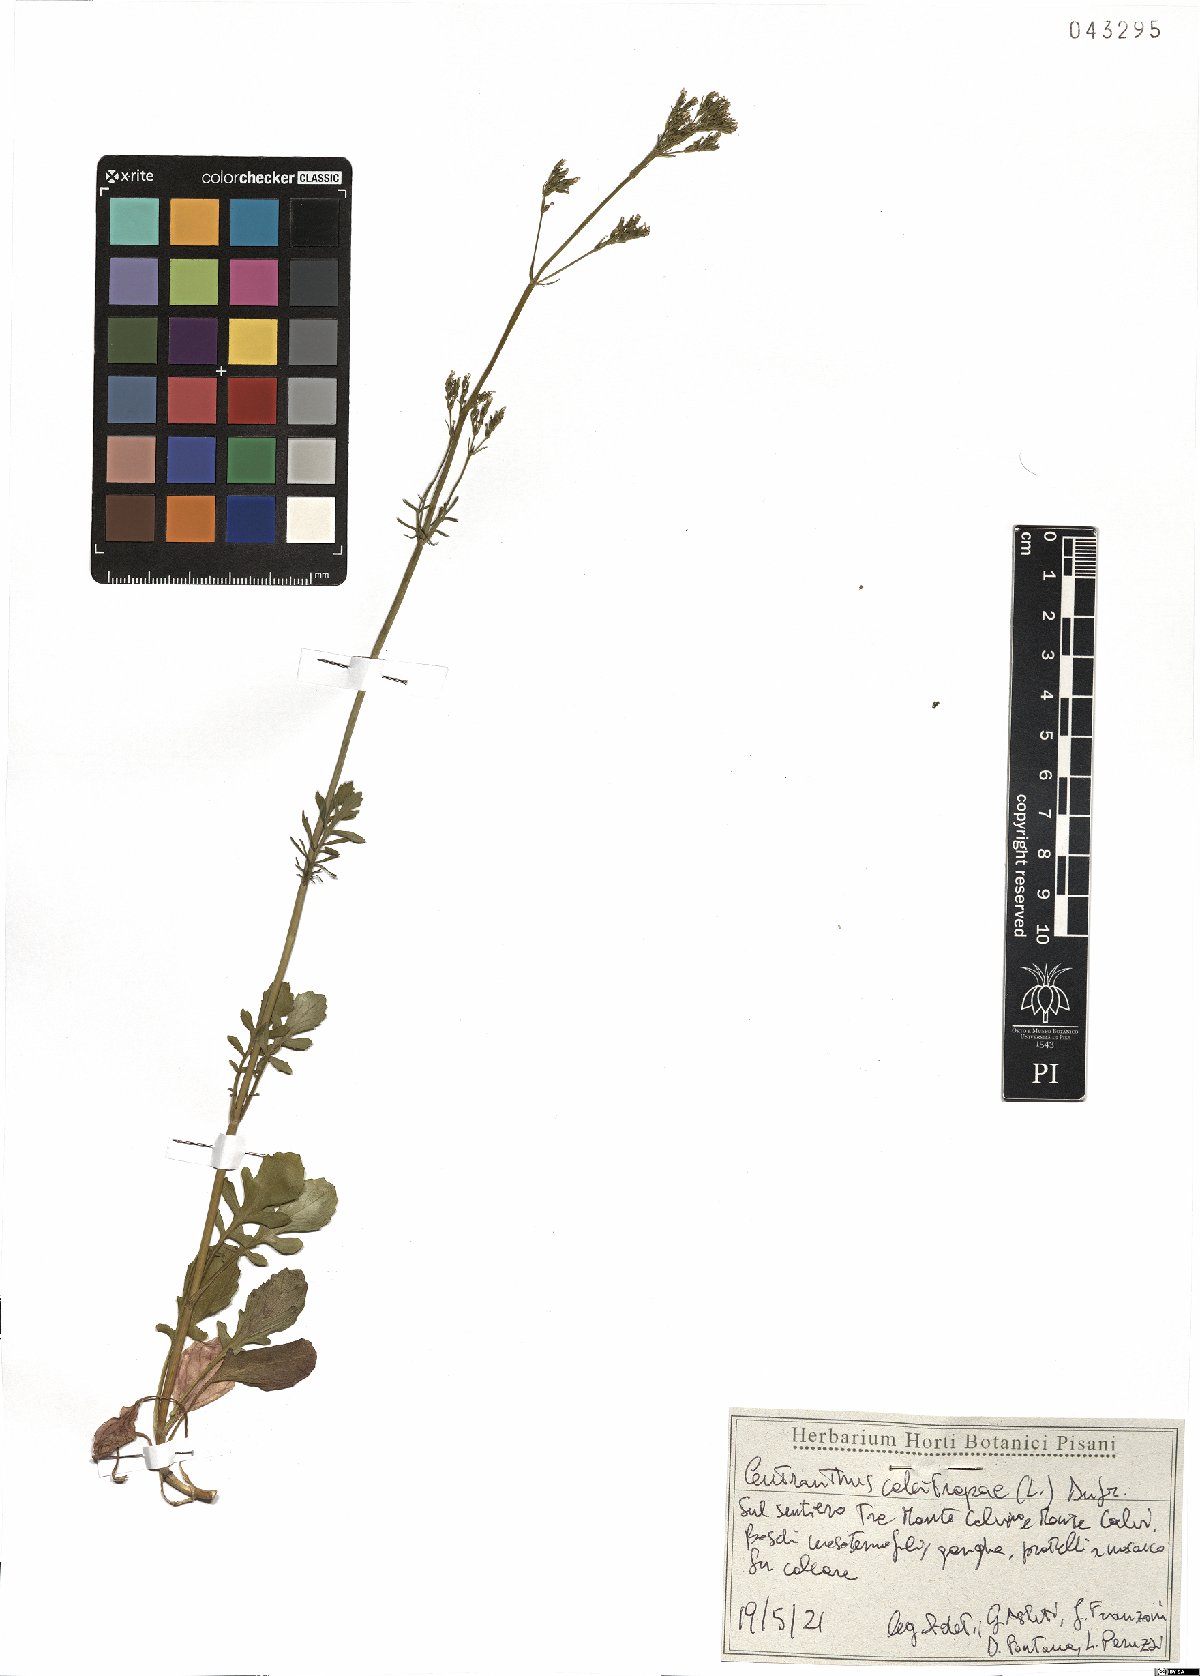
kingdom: Plantae
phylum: Tracheophyta
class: Magnoliopsida
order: Dipsacales
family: Caprifoliaceae
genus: Centranthus
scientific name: Centranthus calcitrapae
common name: Annual valerian
